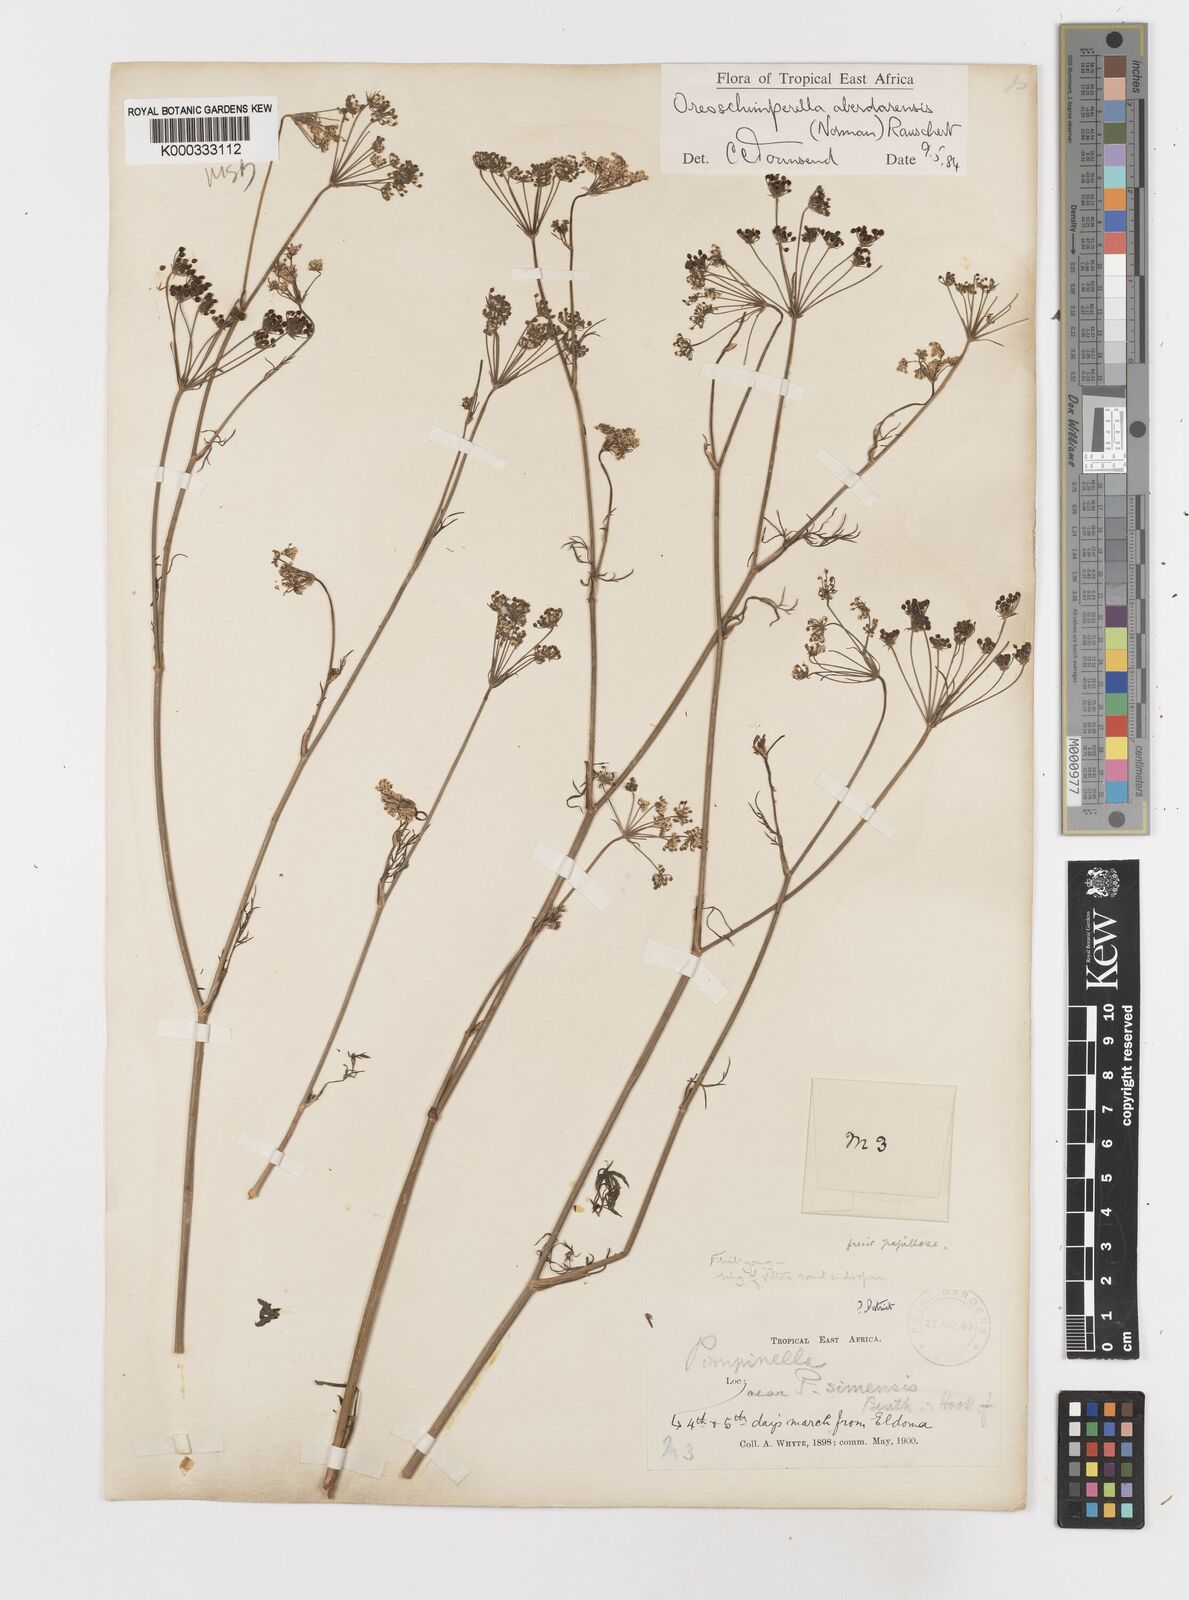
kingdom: Plantae
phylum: Tracheophyta
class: Magnoliopsida
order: Apiales
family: Apiaceae
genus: Oreoschimperella
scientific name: Oreoschimperella aberdarensis
